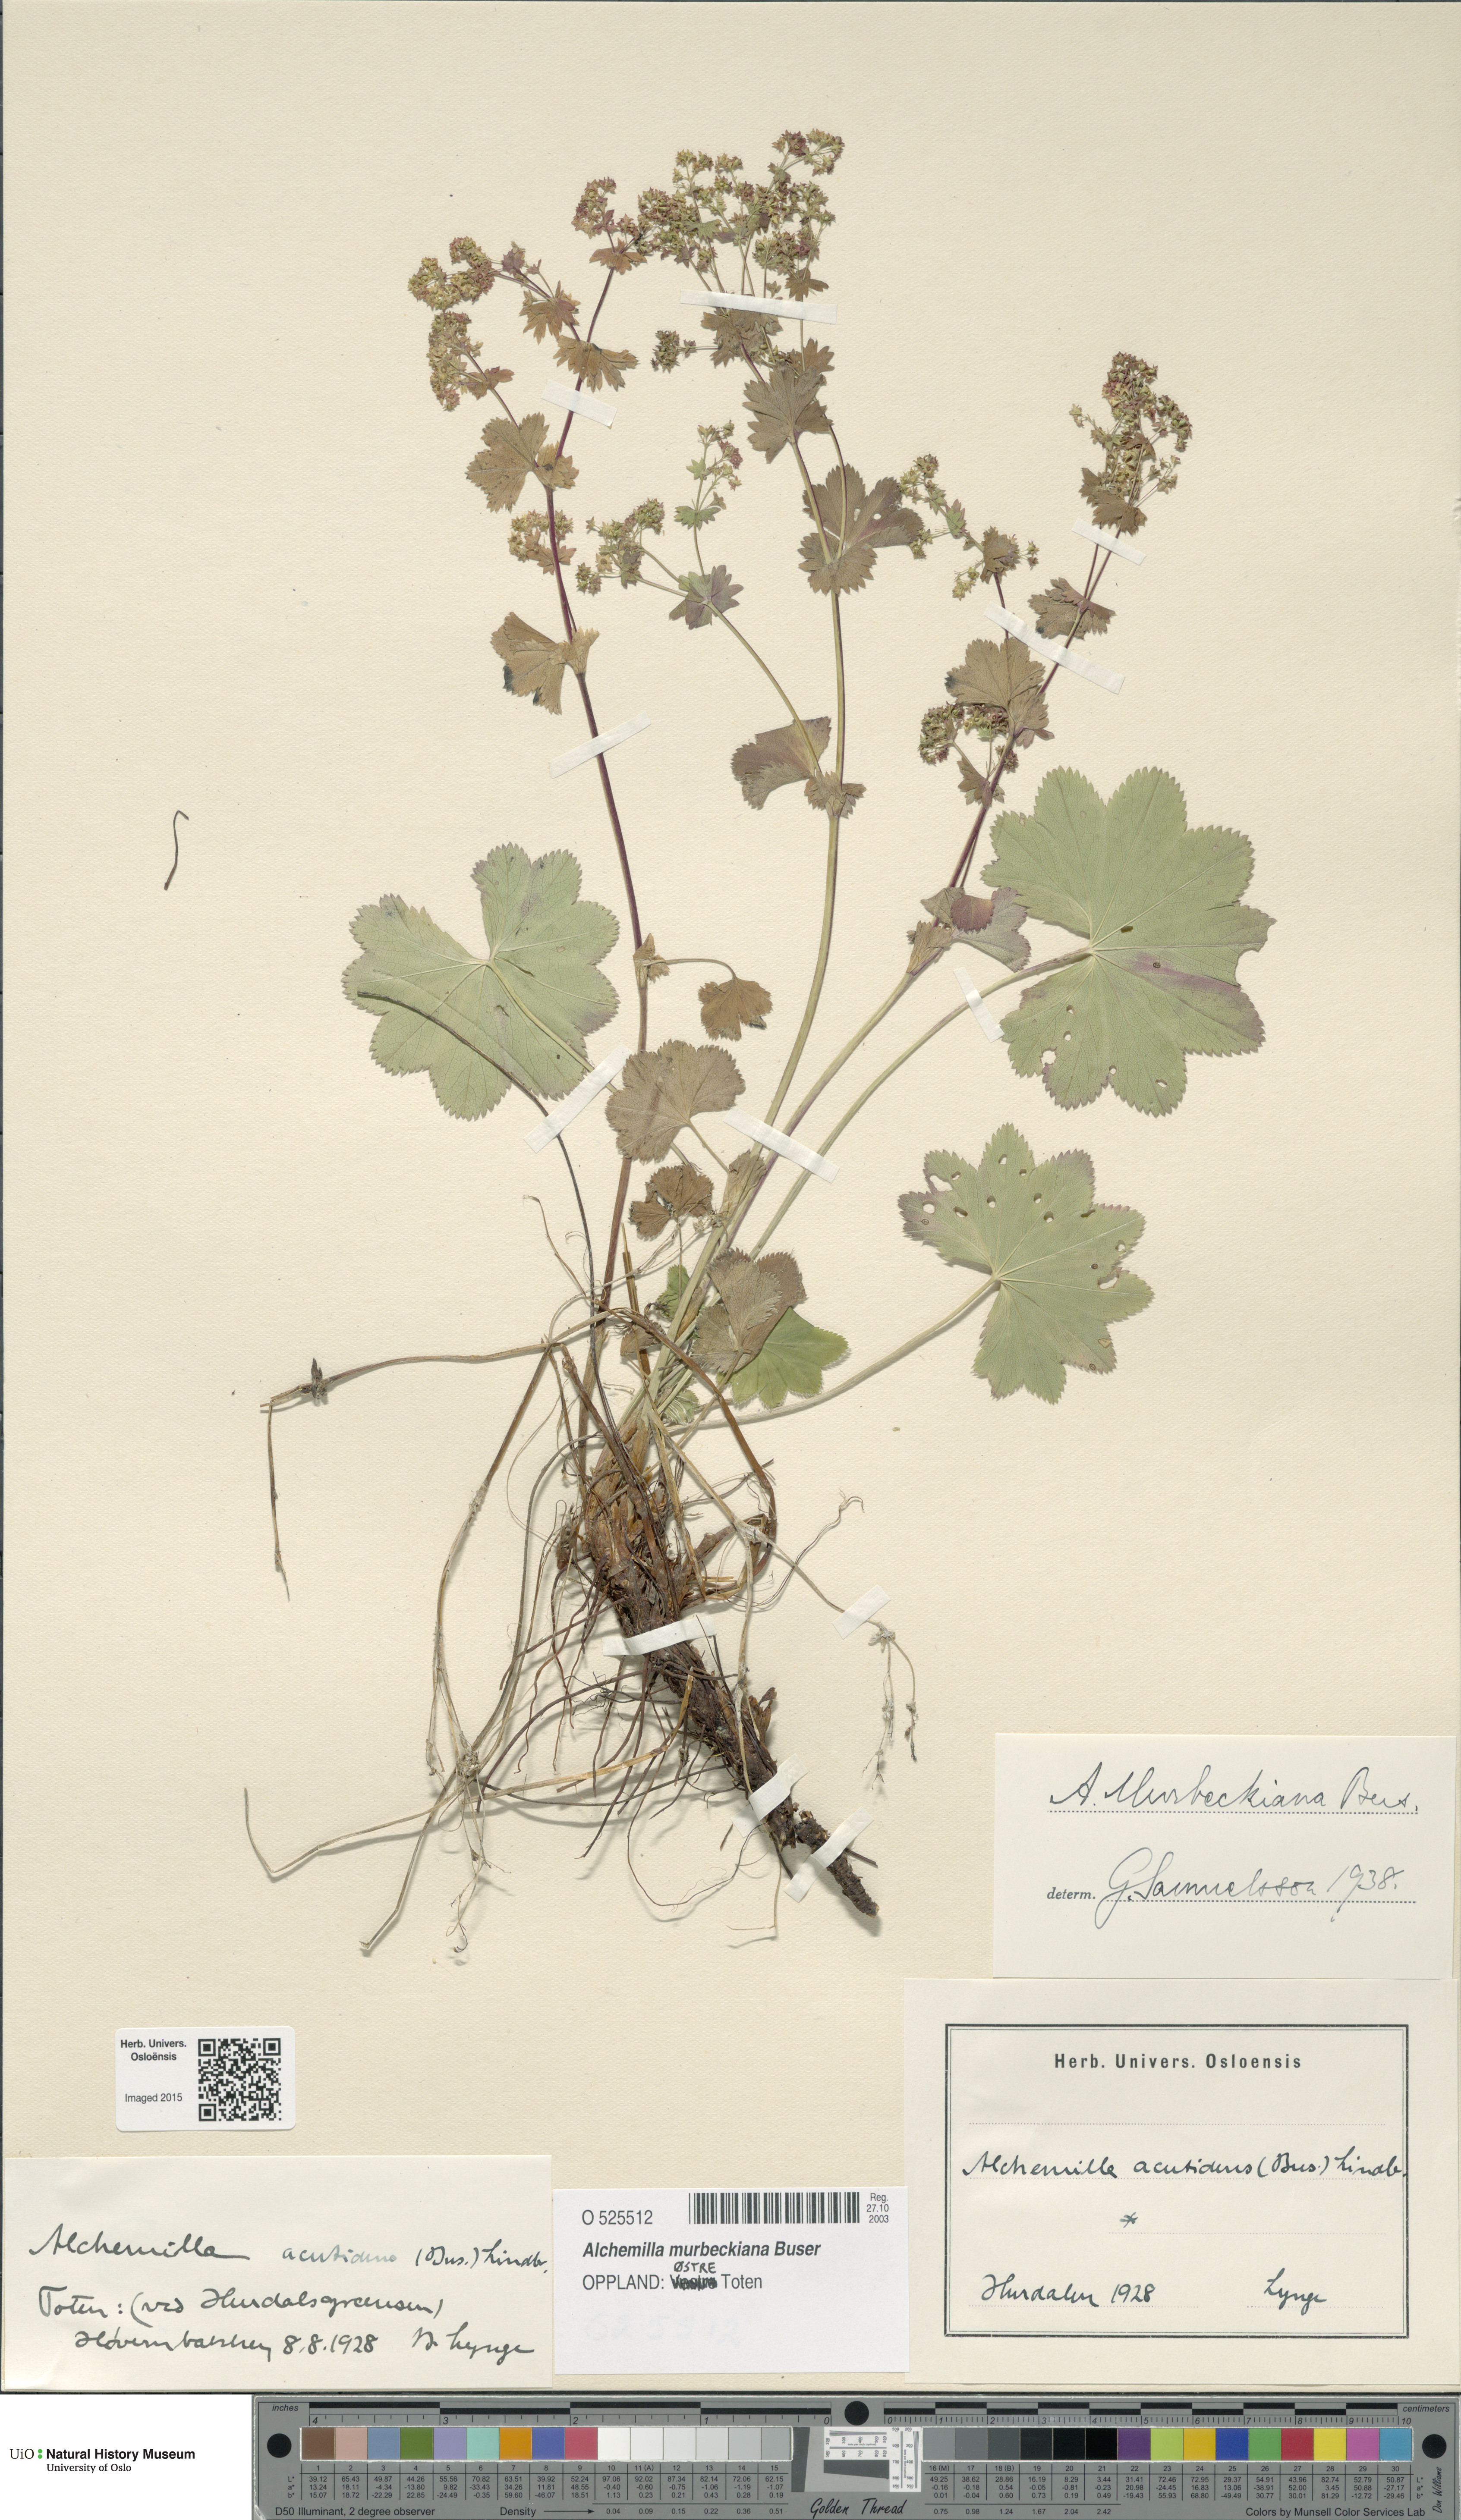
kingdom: Plantae
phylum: Tracheophyta
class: Magnoliopsida
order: Rosales
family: Rosaceae
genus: Alchemilla
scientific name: Alchemilla murbeckiana
